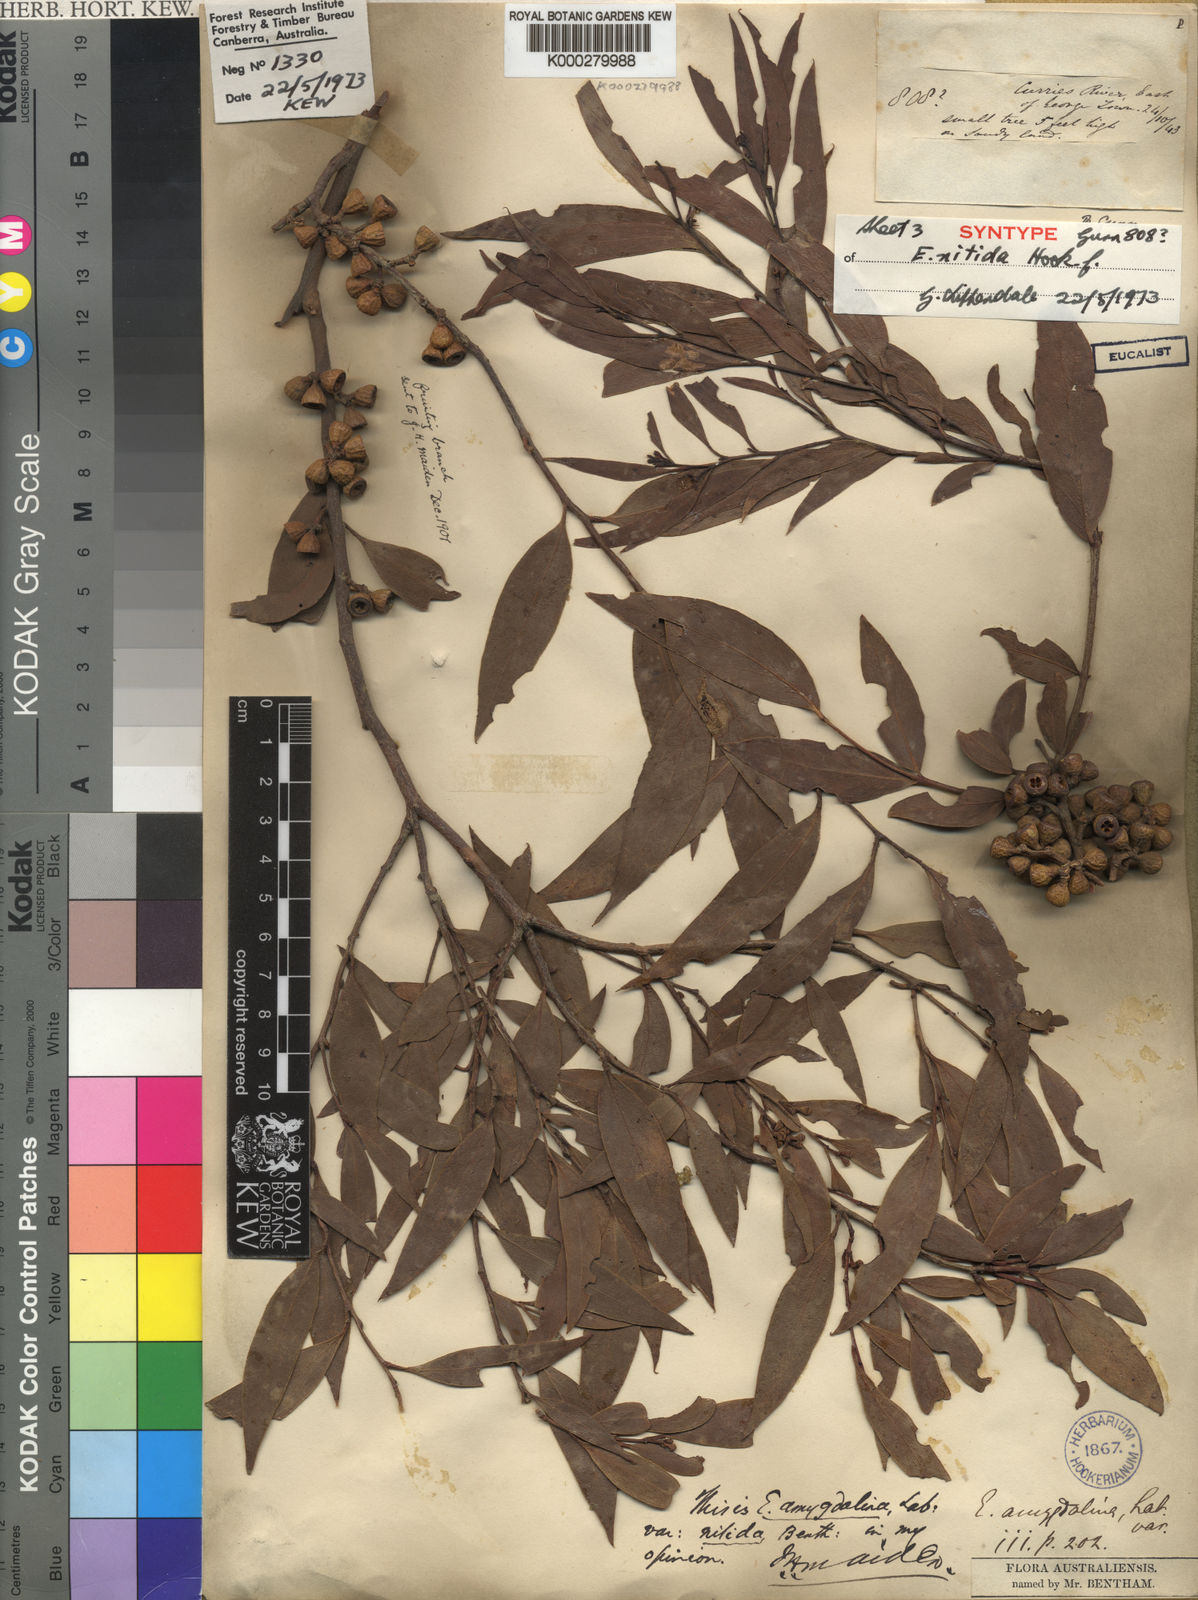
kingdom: Plantae
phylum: Tracheophyta
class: Magnoliopsida
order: Myrtales
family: Myrtaceae
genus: Eucalyptus
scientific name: Eucalyptus nitida
